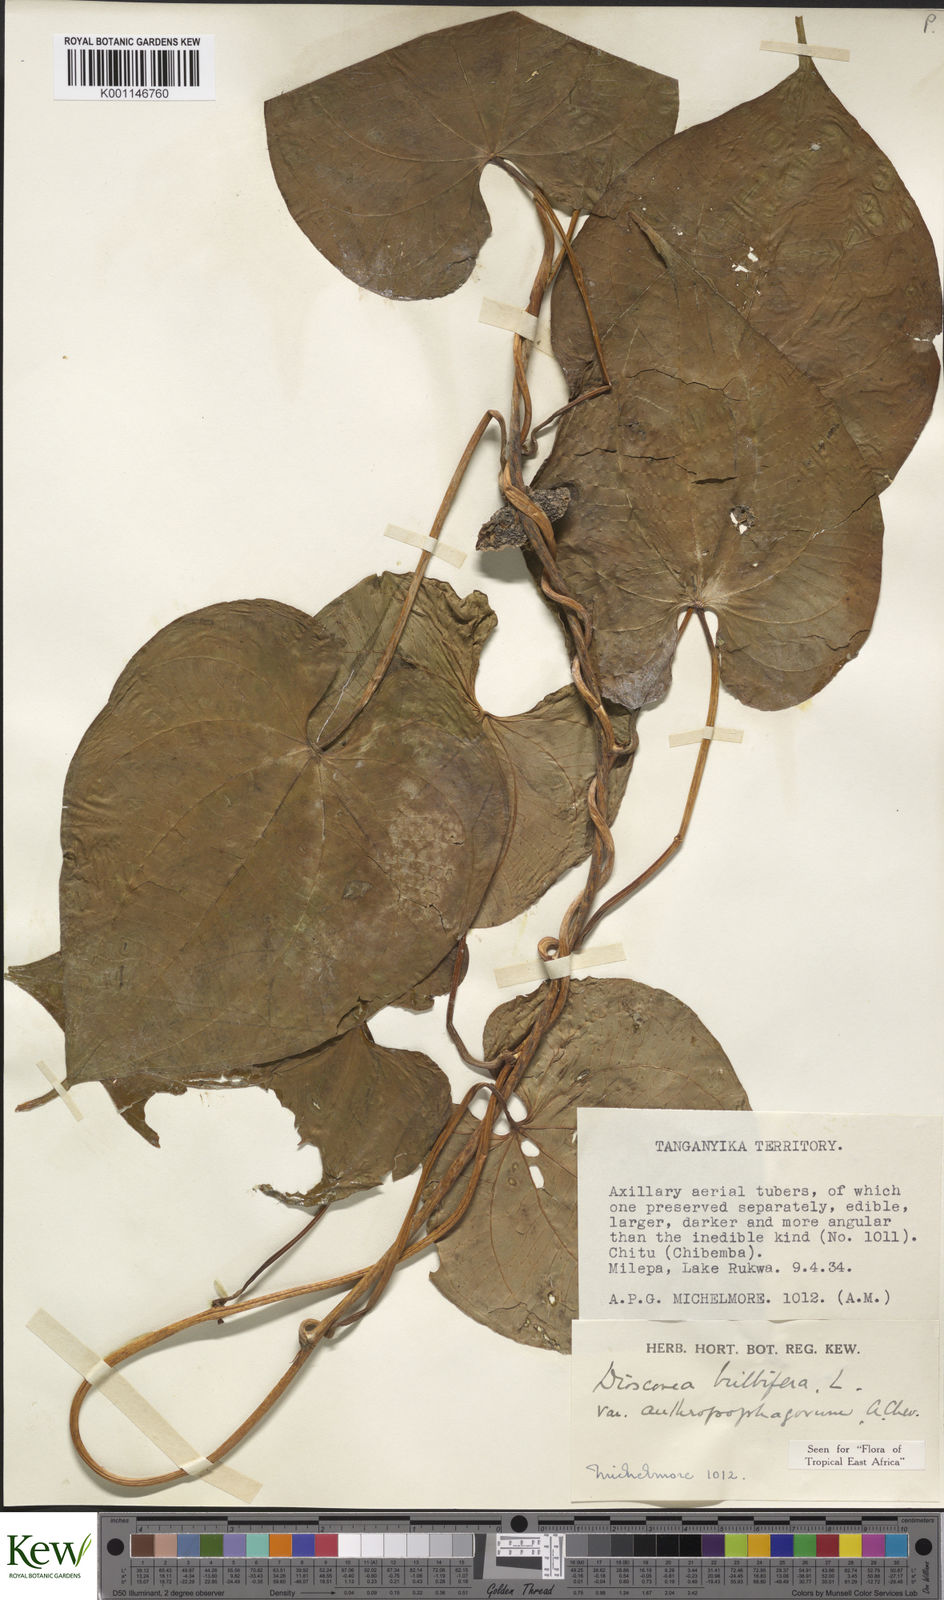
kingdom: Plantae
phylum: Tracheophyta
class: Liliopsida
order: Dioscoreales
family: Dioscoreaceae
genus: Dioscorea
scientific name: Dioscorea bulbifera
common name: Air yam
